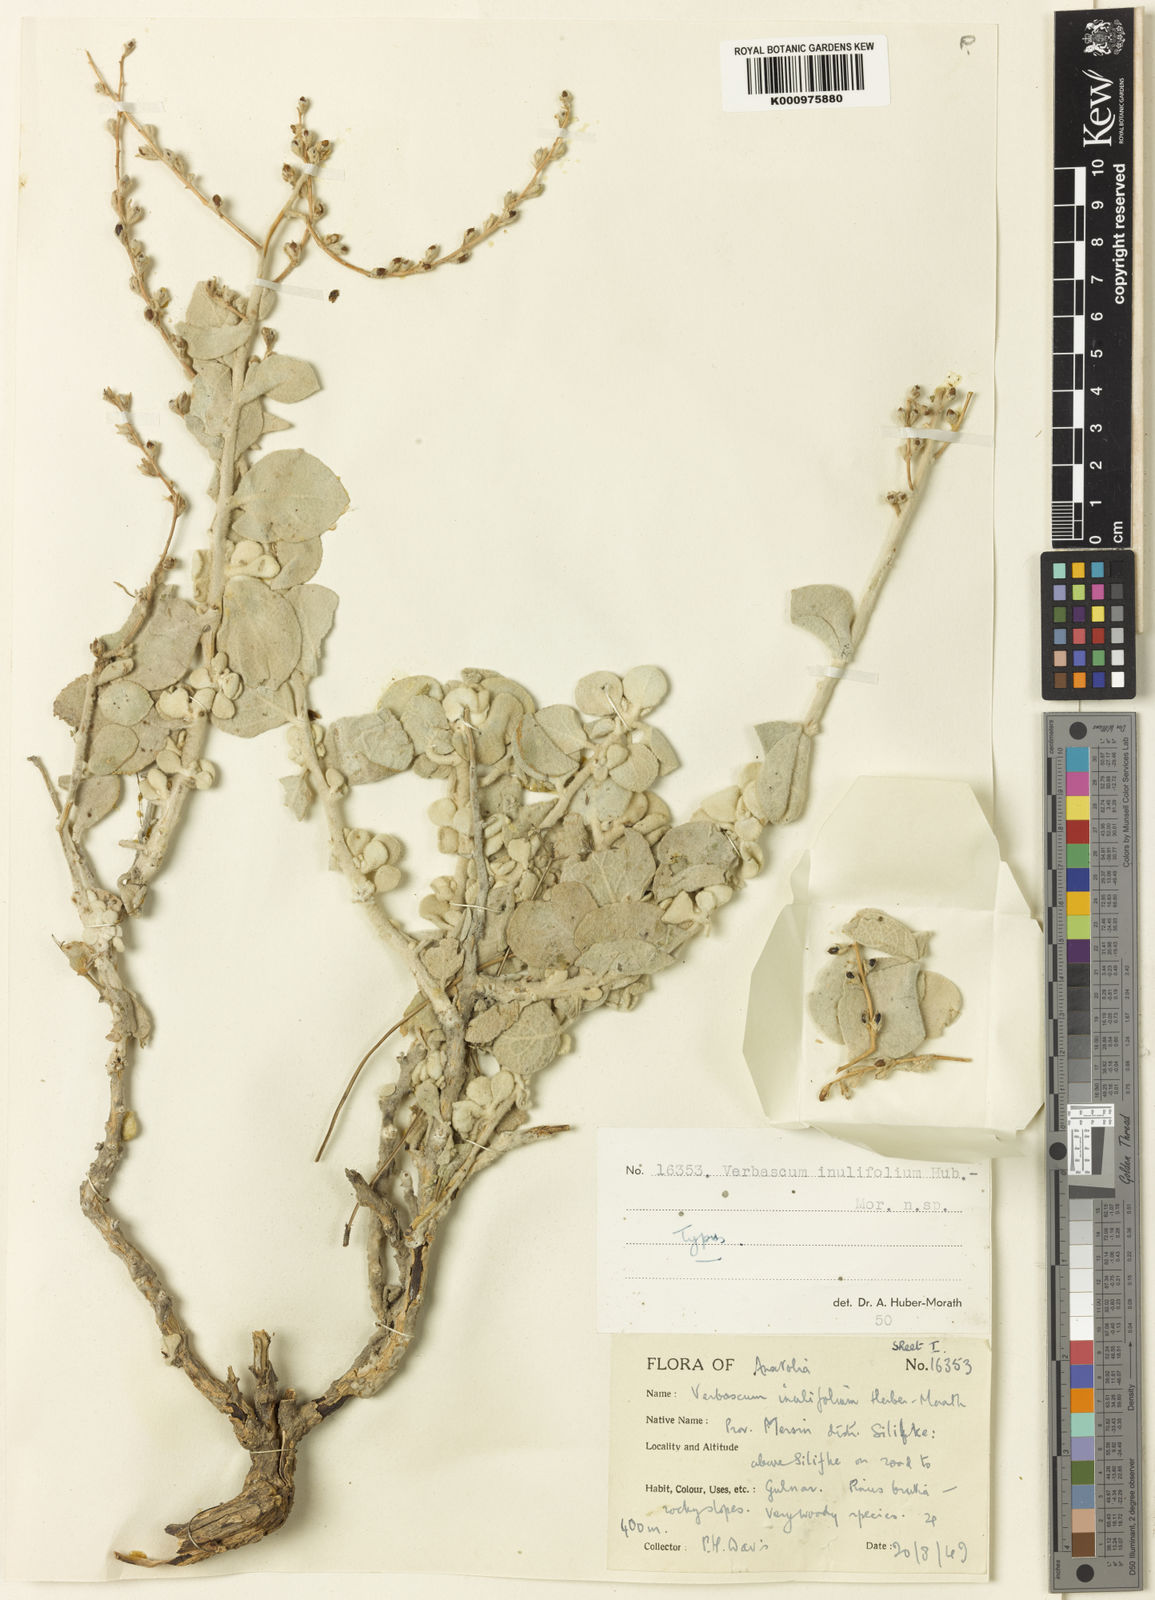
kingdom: Plantae
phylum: Tracheophyta
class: Magnoliopsida
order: Lamiales
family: Scrophulariaceae
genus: Verbascum
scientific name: Verbascum inulifolium
